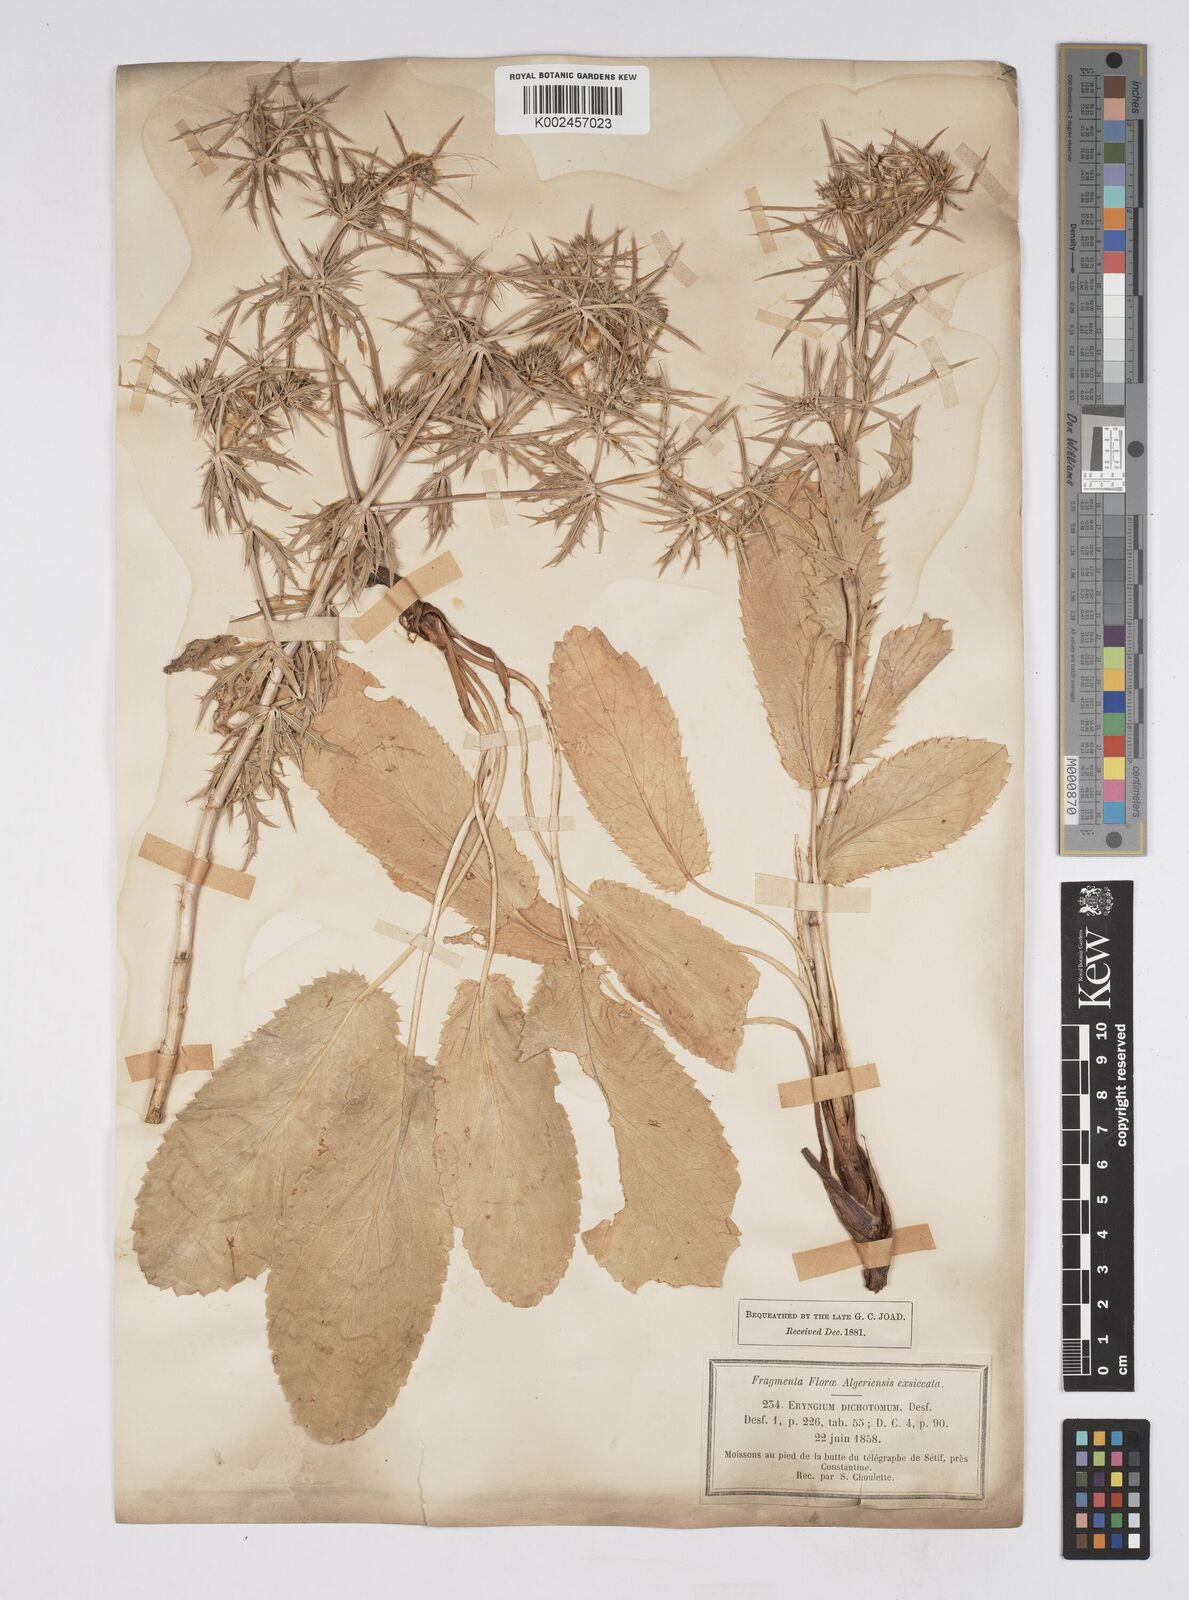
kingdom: Plantae
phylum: Tracheophyta
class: Magnoliopsida
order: Apiales
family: Apiaceae
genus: Eryngium
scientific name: Eryngium dichotomum
